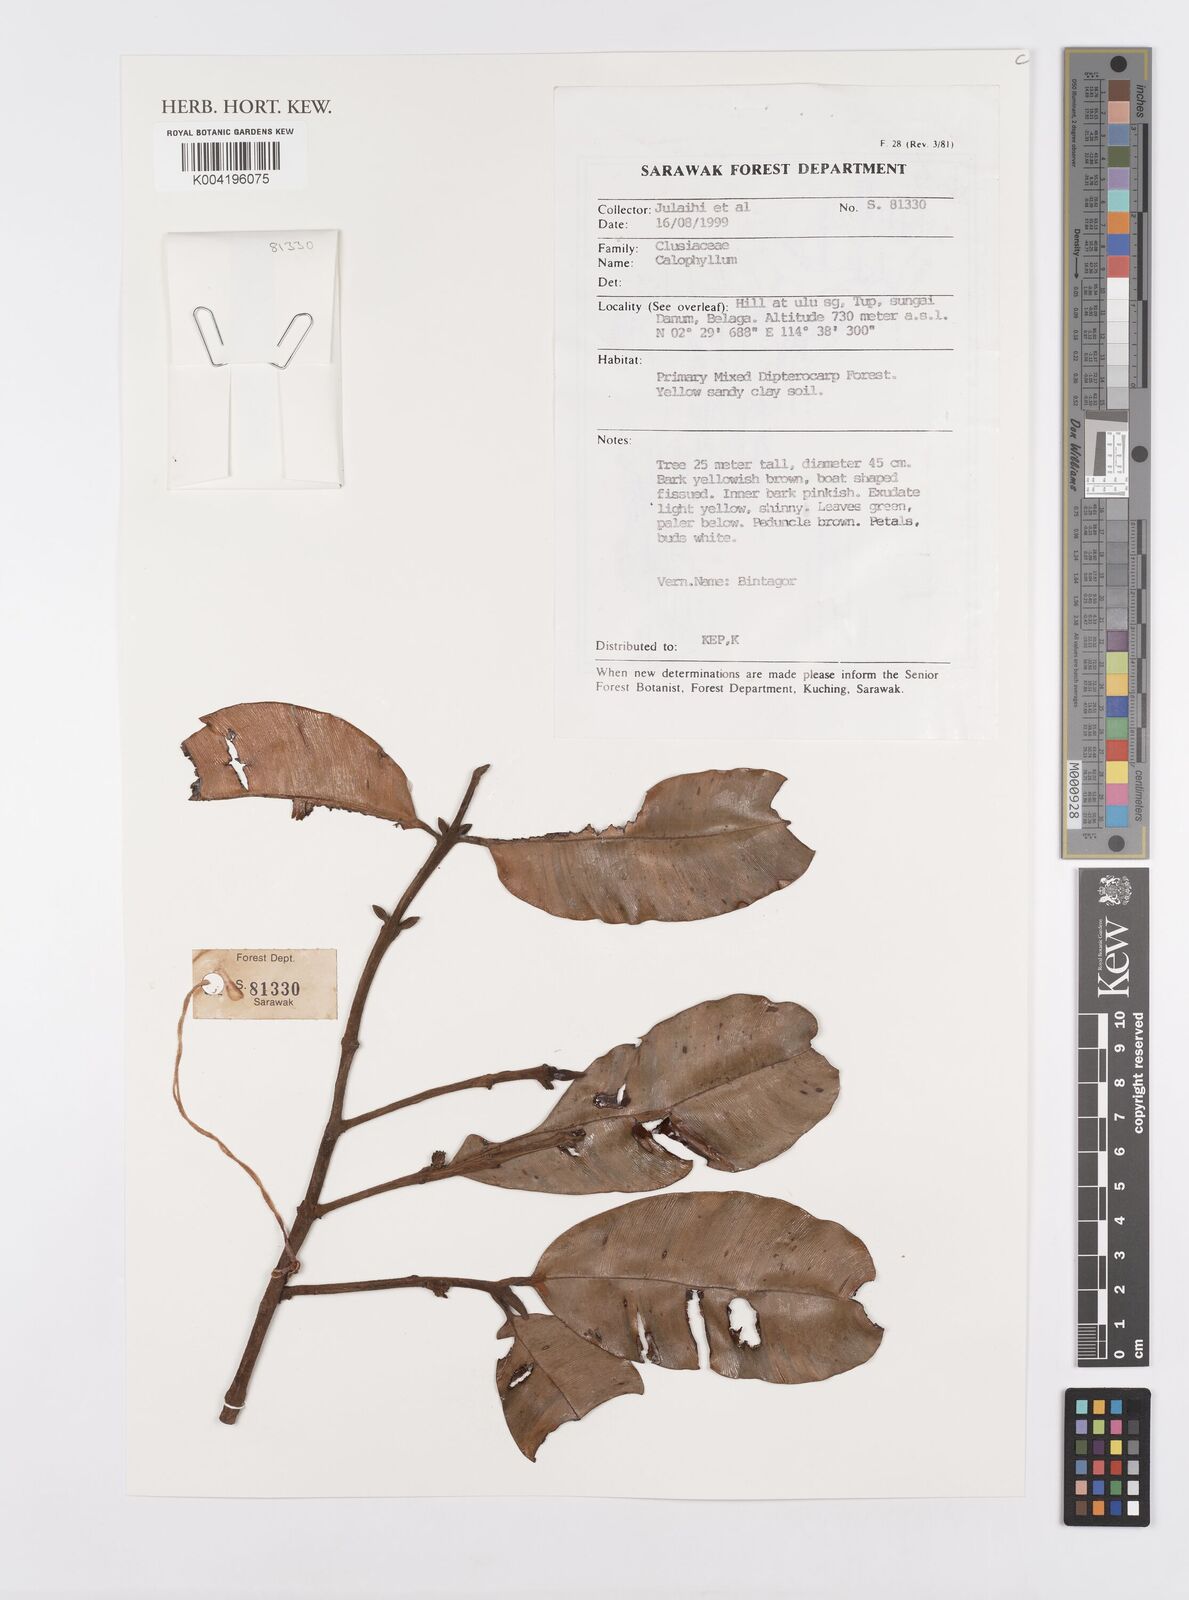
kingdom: Plantae
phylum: Tracheophyta
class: Magnoliopsida
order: Malpighiales
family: Calophyllaceae
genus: Calophyllum
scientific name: Calophyllum
